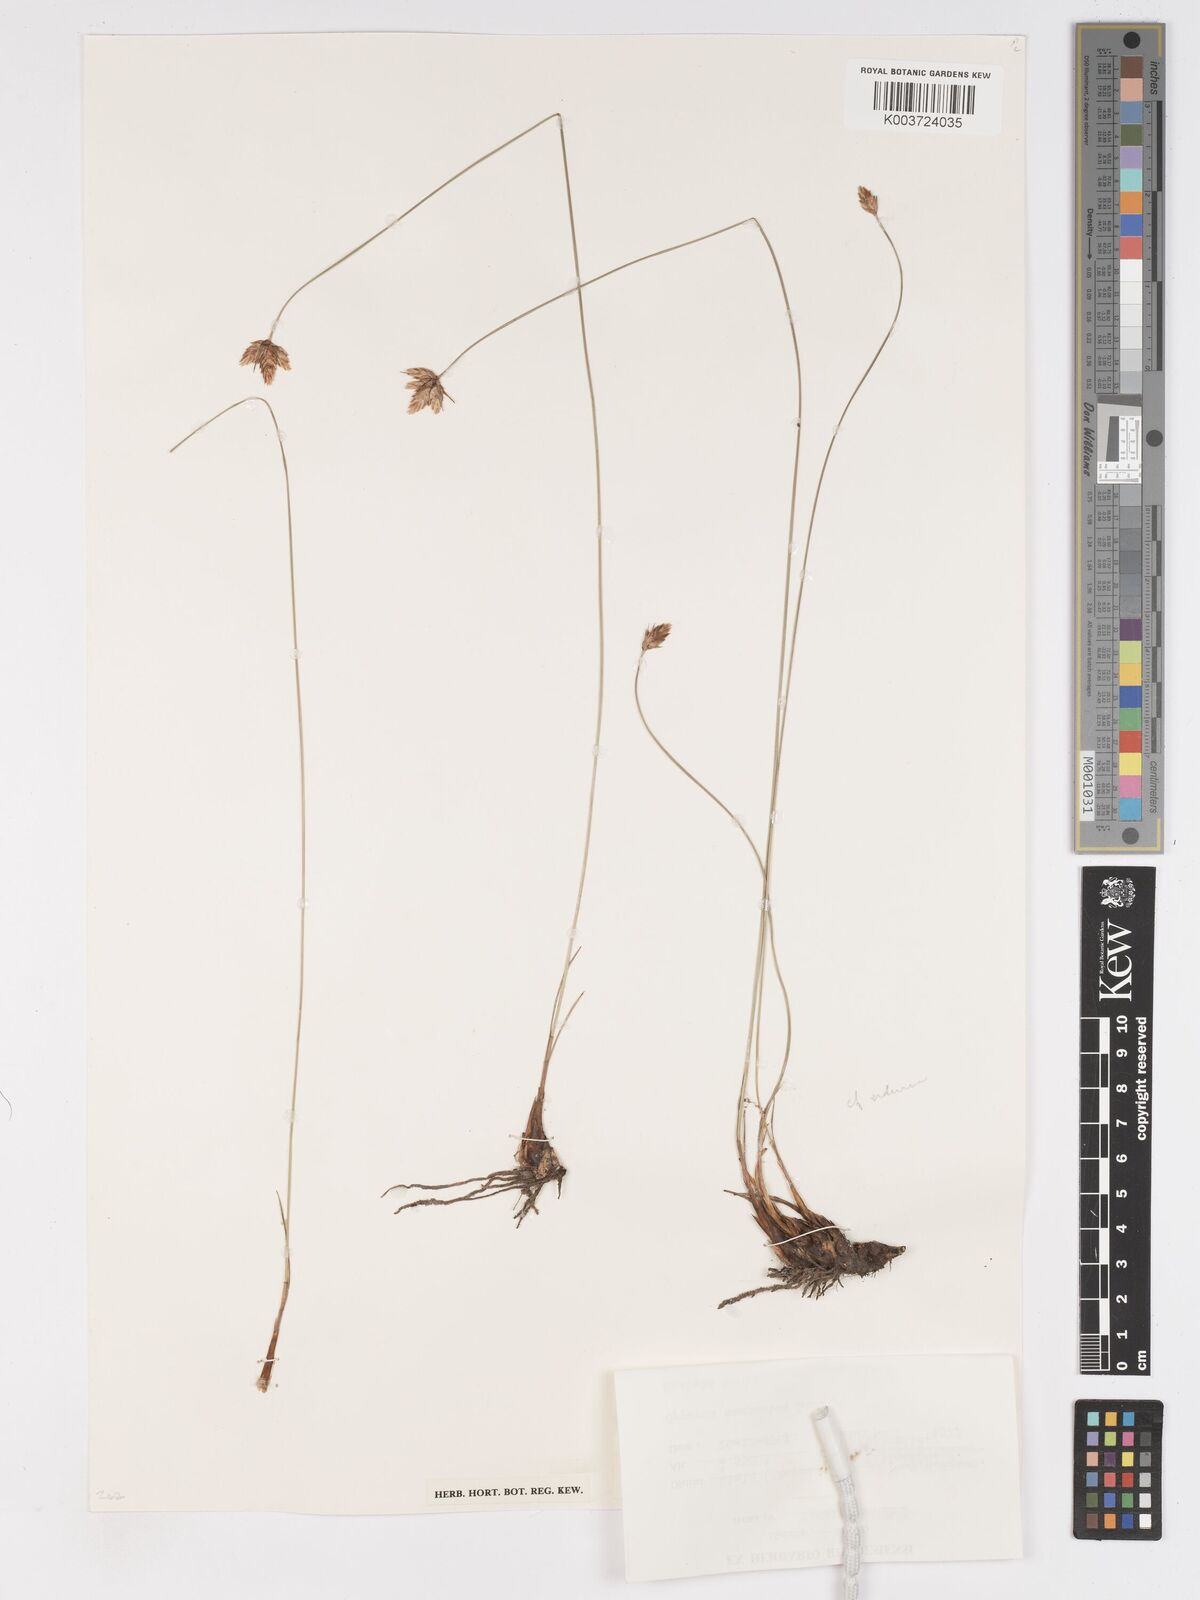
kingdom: Plantae
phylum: Tracheophyta
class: Liliopsida
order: Poales
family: Cyperaceae
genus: Cyperus
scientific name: Cyperus niveus
